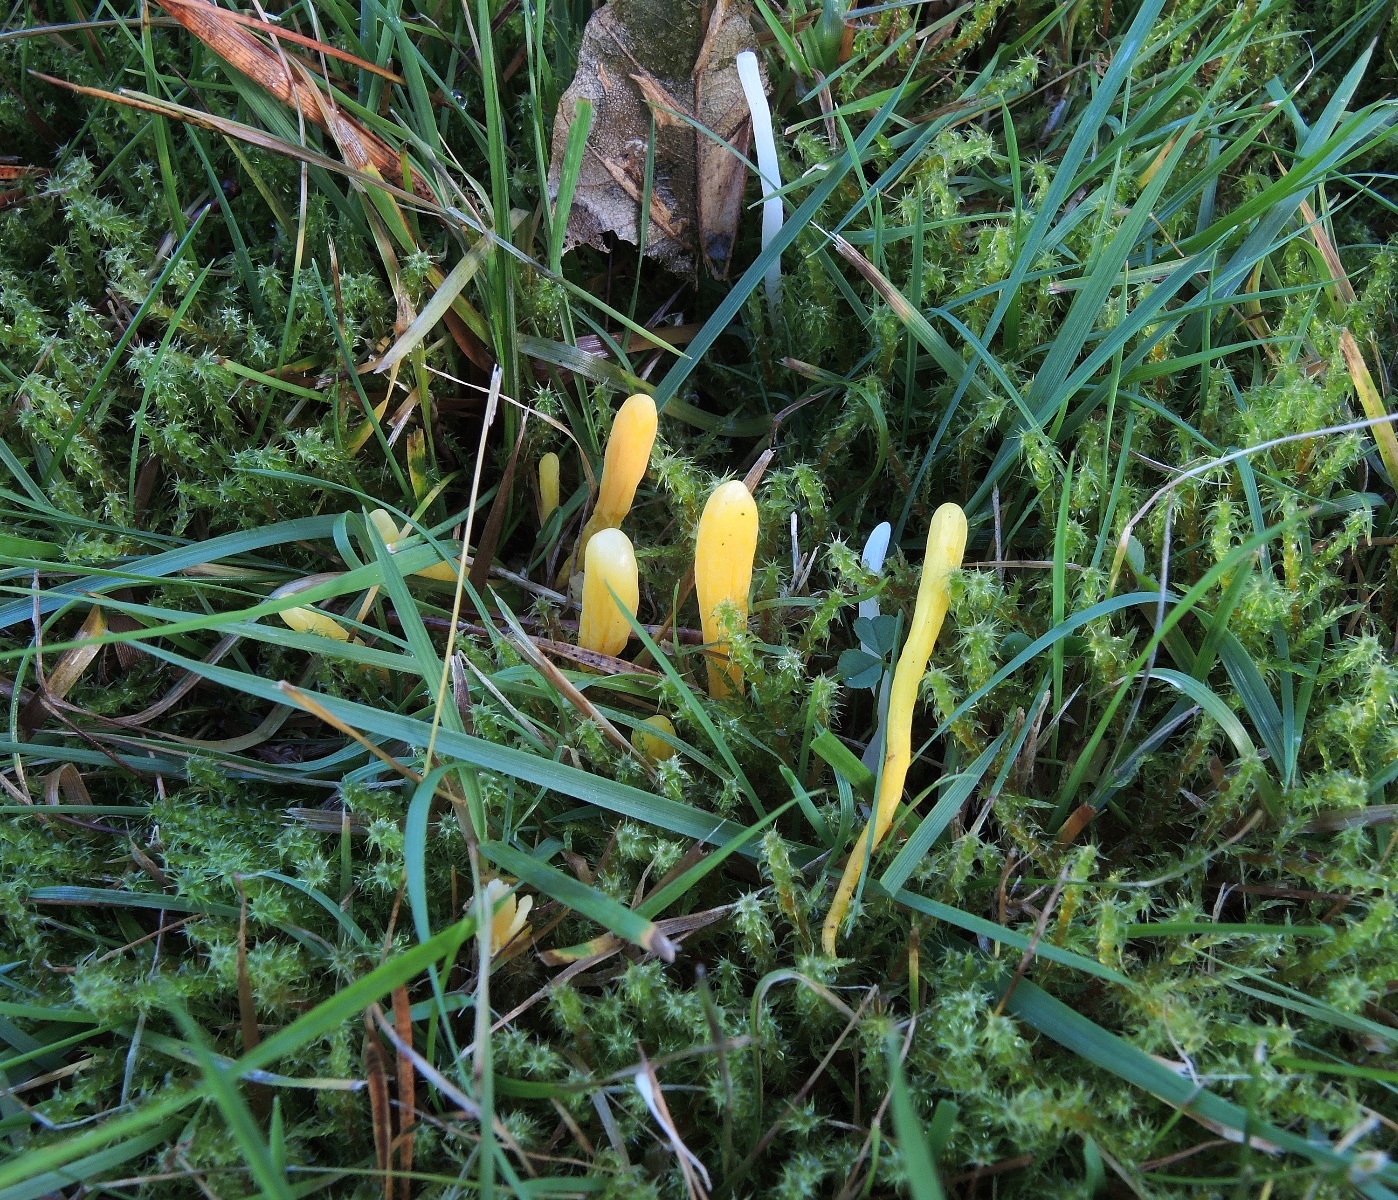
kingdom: Fungi
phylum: Basidiomycota
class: Agaricomycetes
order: Agaricales
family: Clavariaceae
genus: Clavulinopsis
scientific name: Clavulinopsis helvola
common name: orangegul køllesvamp
